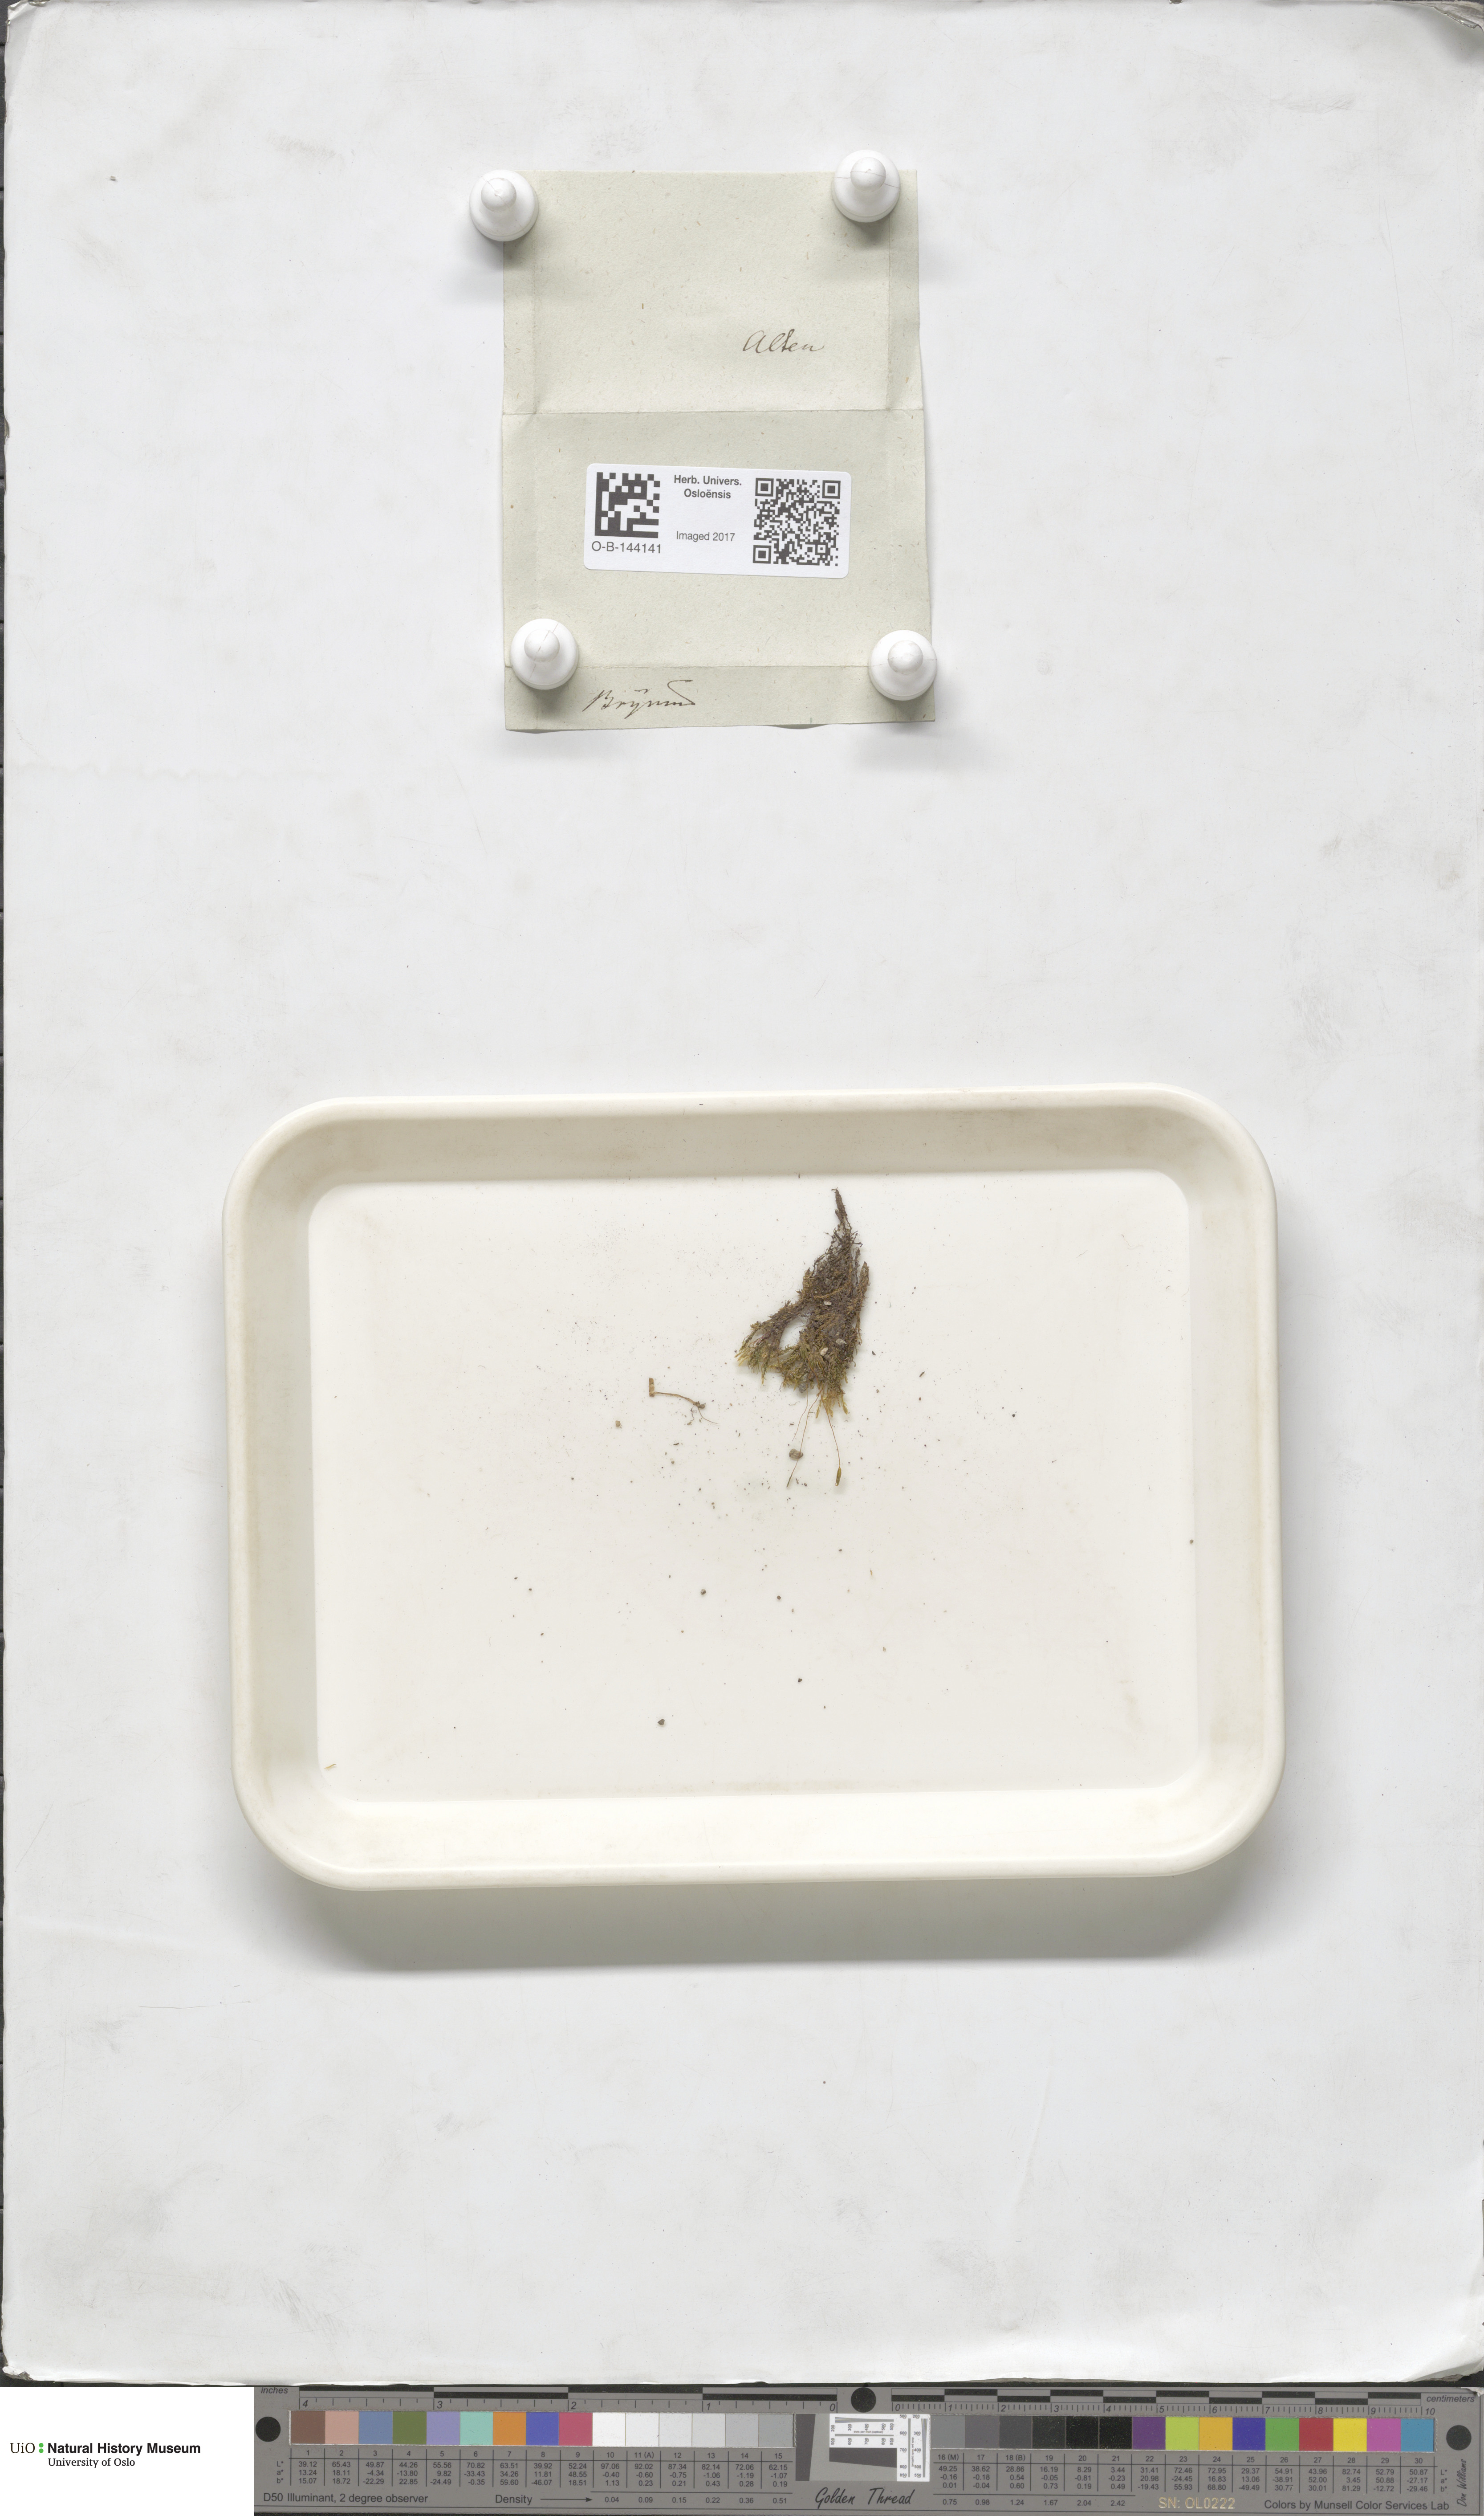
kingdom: Plantae
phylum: Bryophyta
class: Bryopsida
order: Bryales
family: Bryaceae
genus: Bryum
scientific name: Bryum
